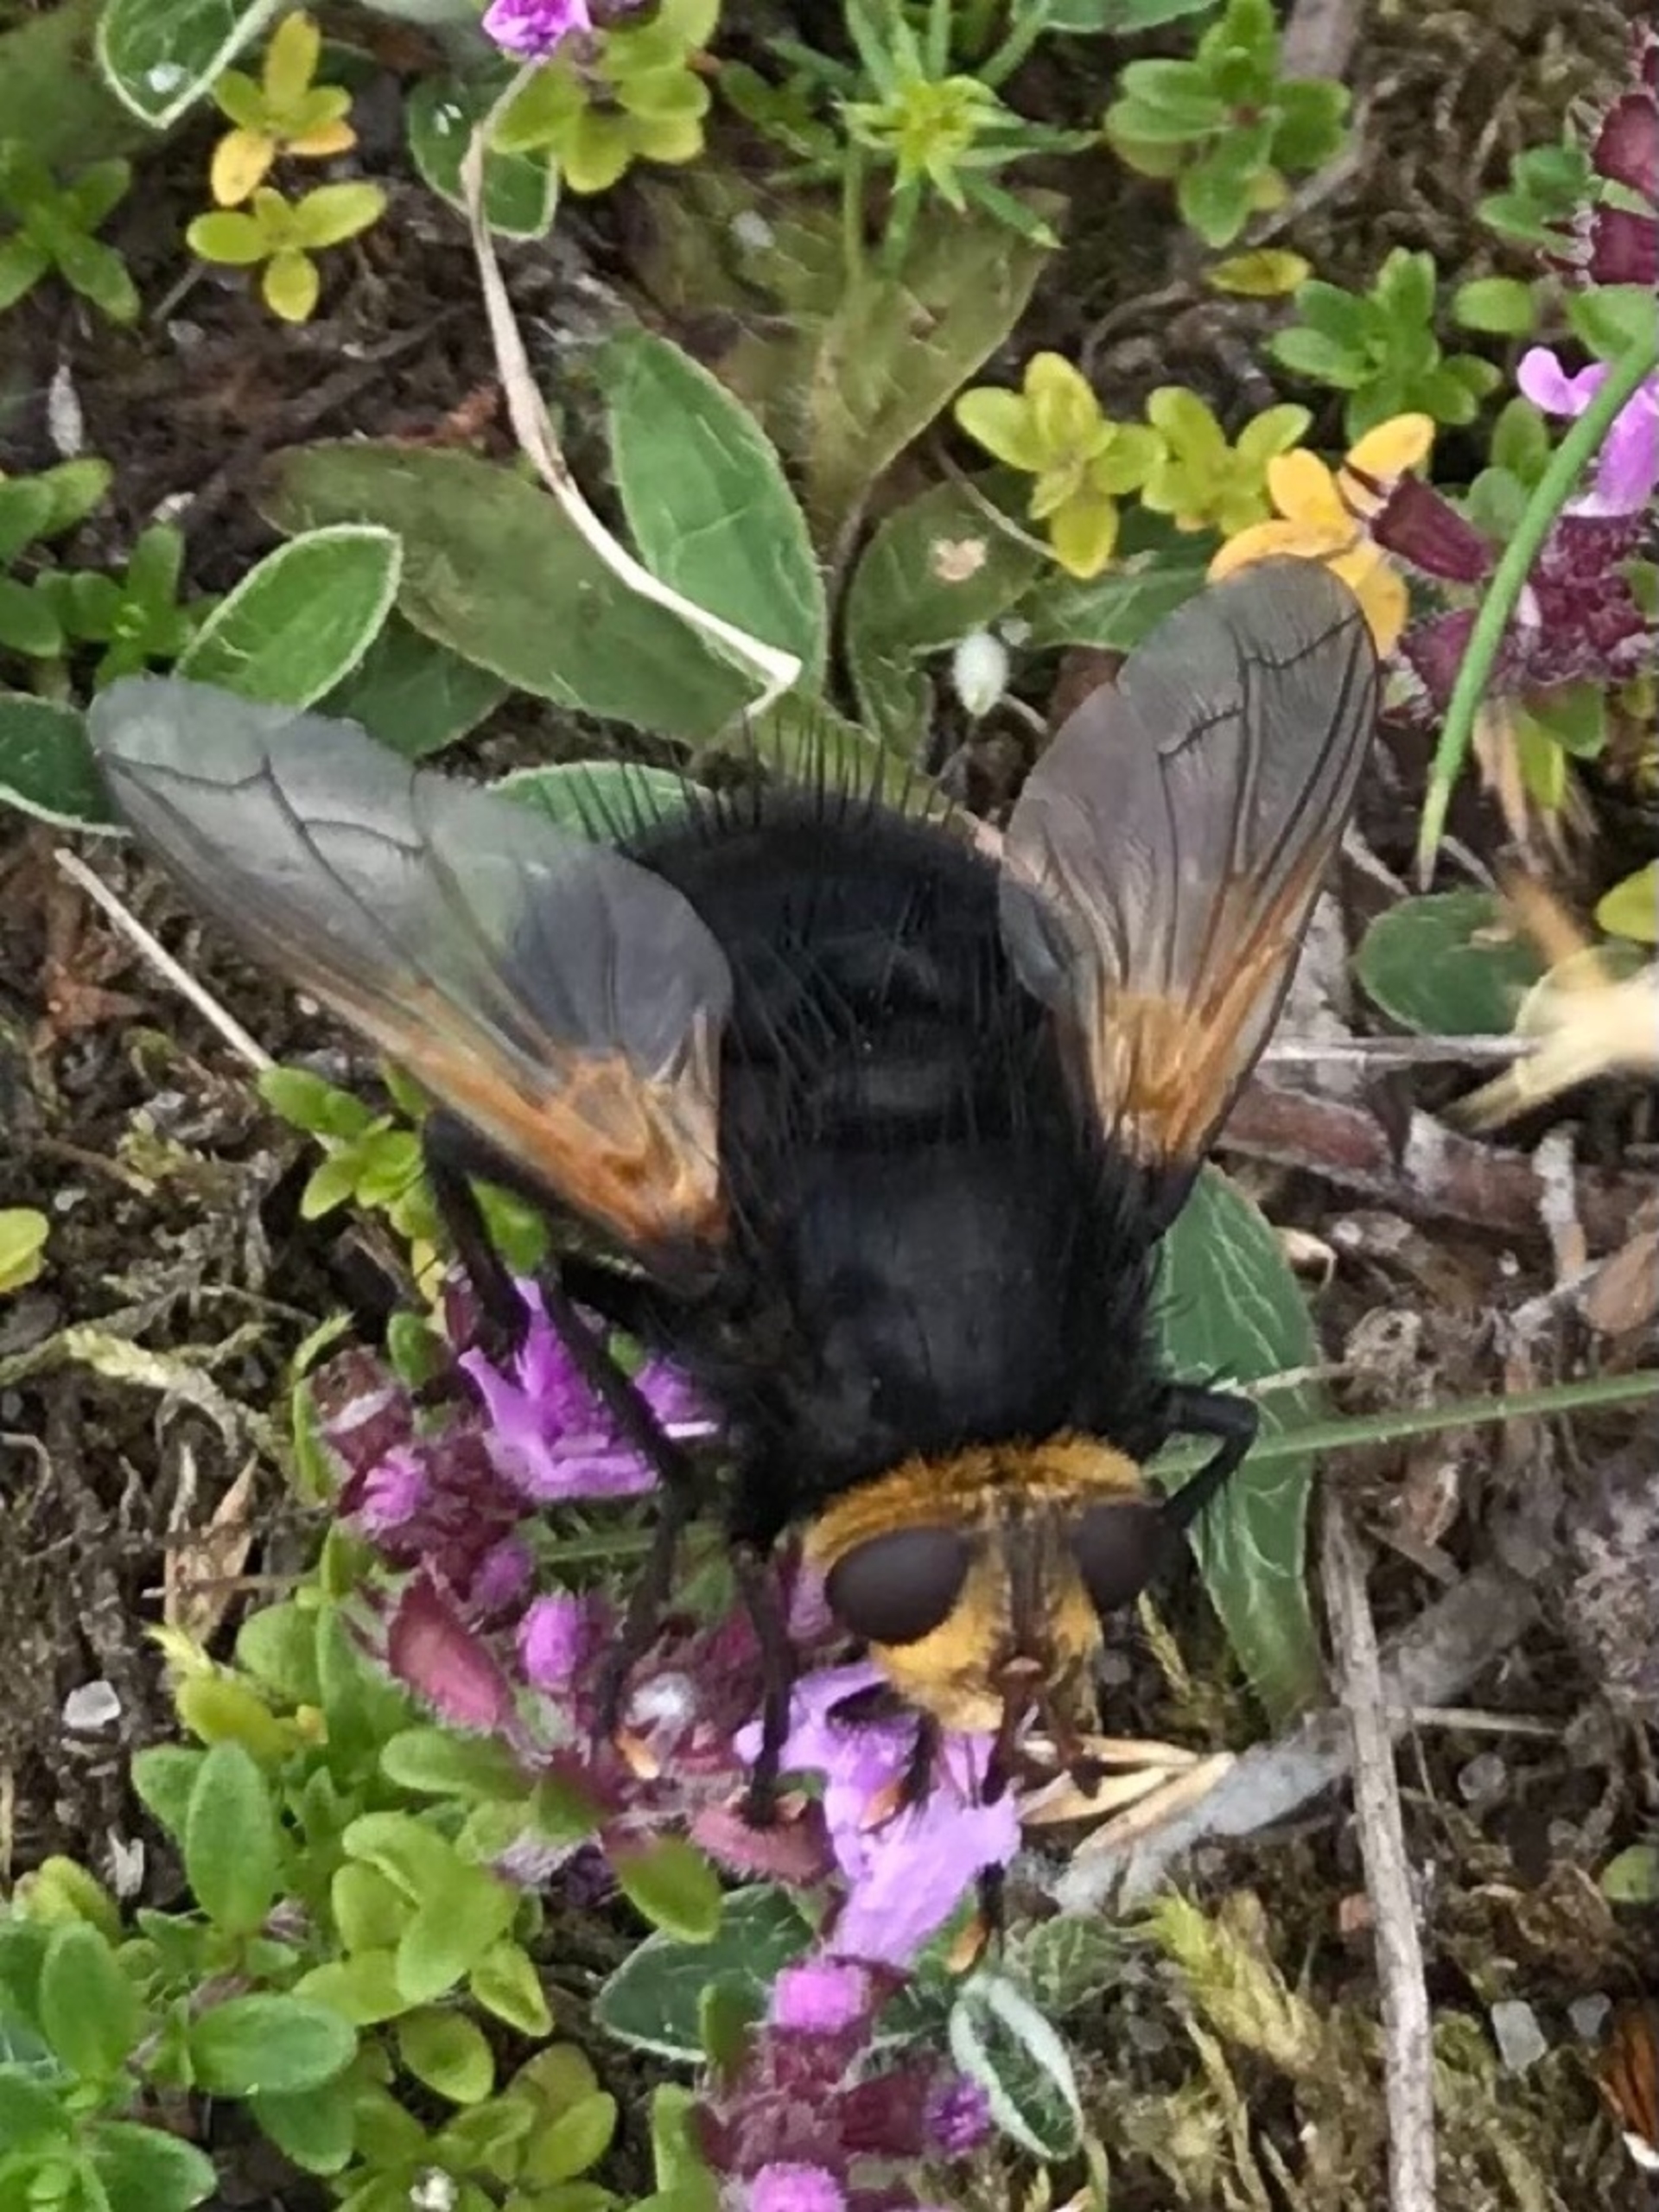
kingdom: Animalia
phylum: Arthropoda
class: Insecta
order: Diptera
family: Tachinidae
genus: Tachina
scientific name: Tachina grossa
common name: Kæmpefluen Harald
